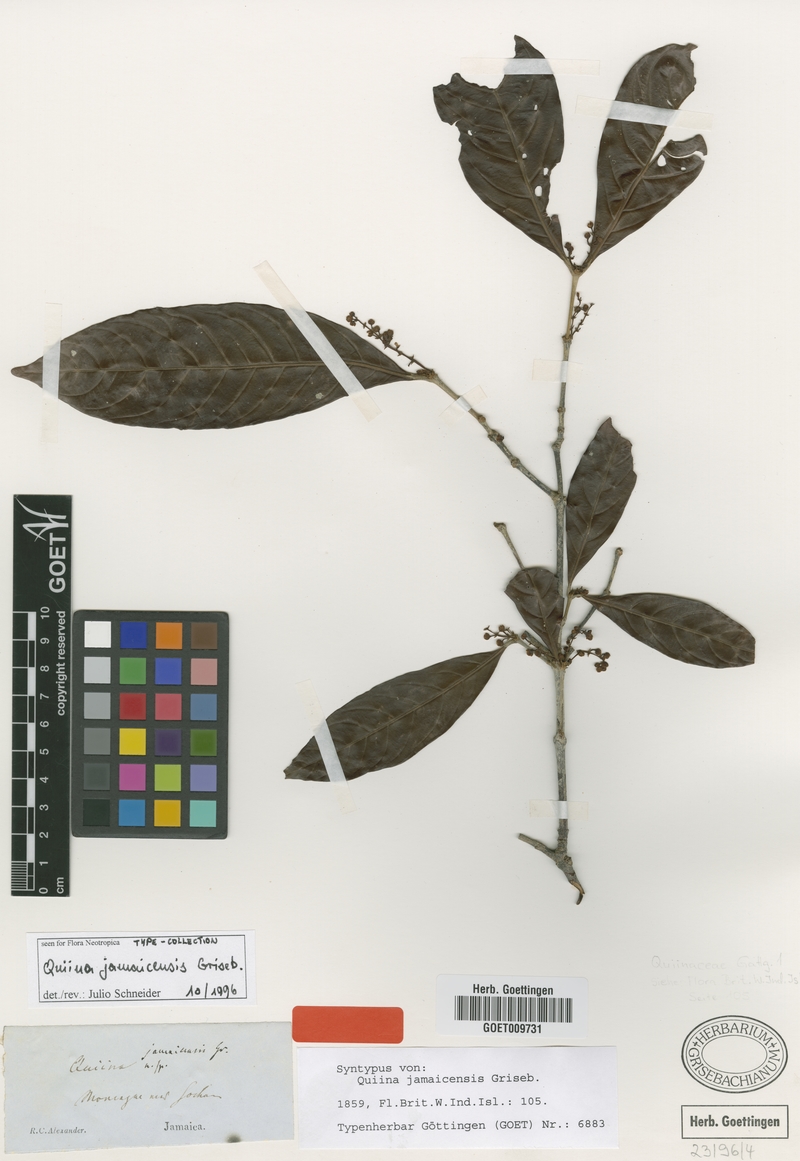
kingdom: Plantae
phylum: Tracheophyta
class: Magnoliopsida
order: Malpighiales
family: Quiinaceae
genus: Quiina
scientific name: Quiina jamaicensis
